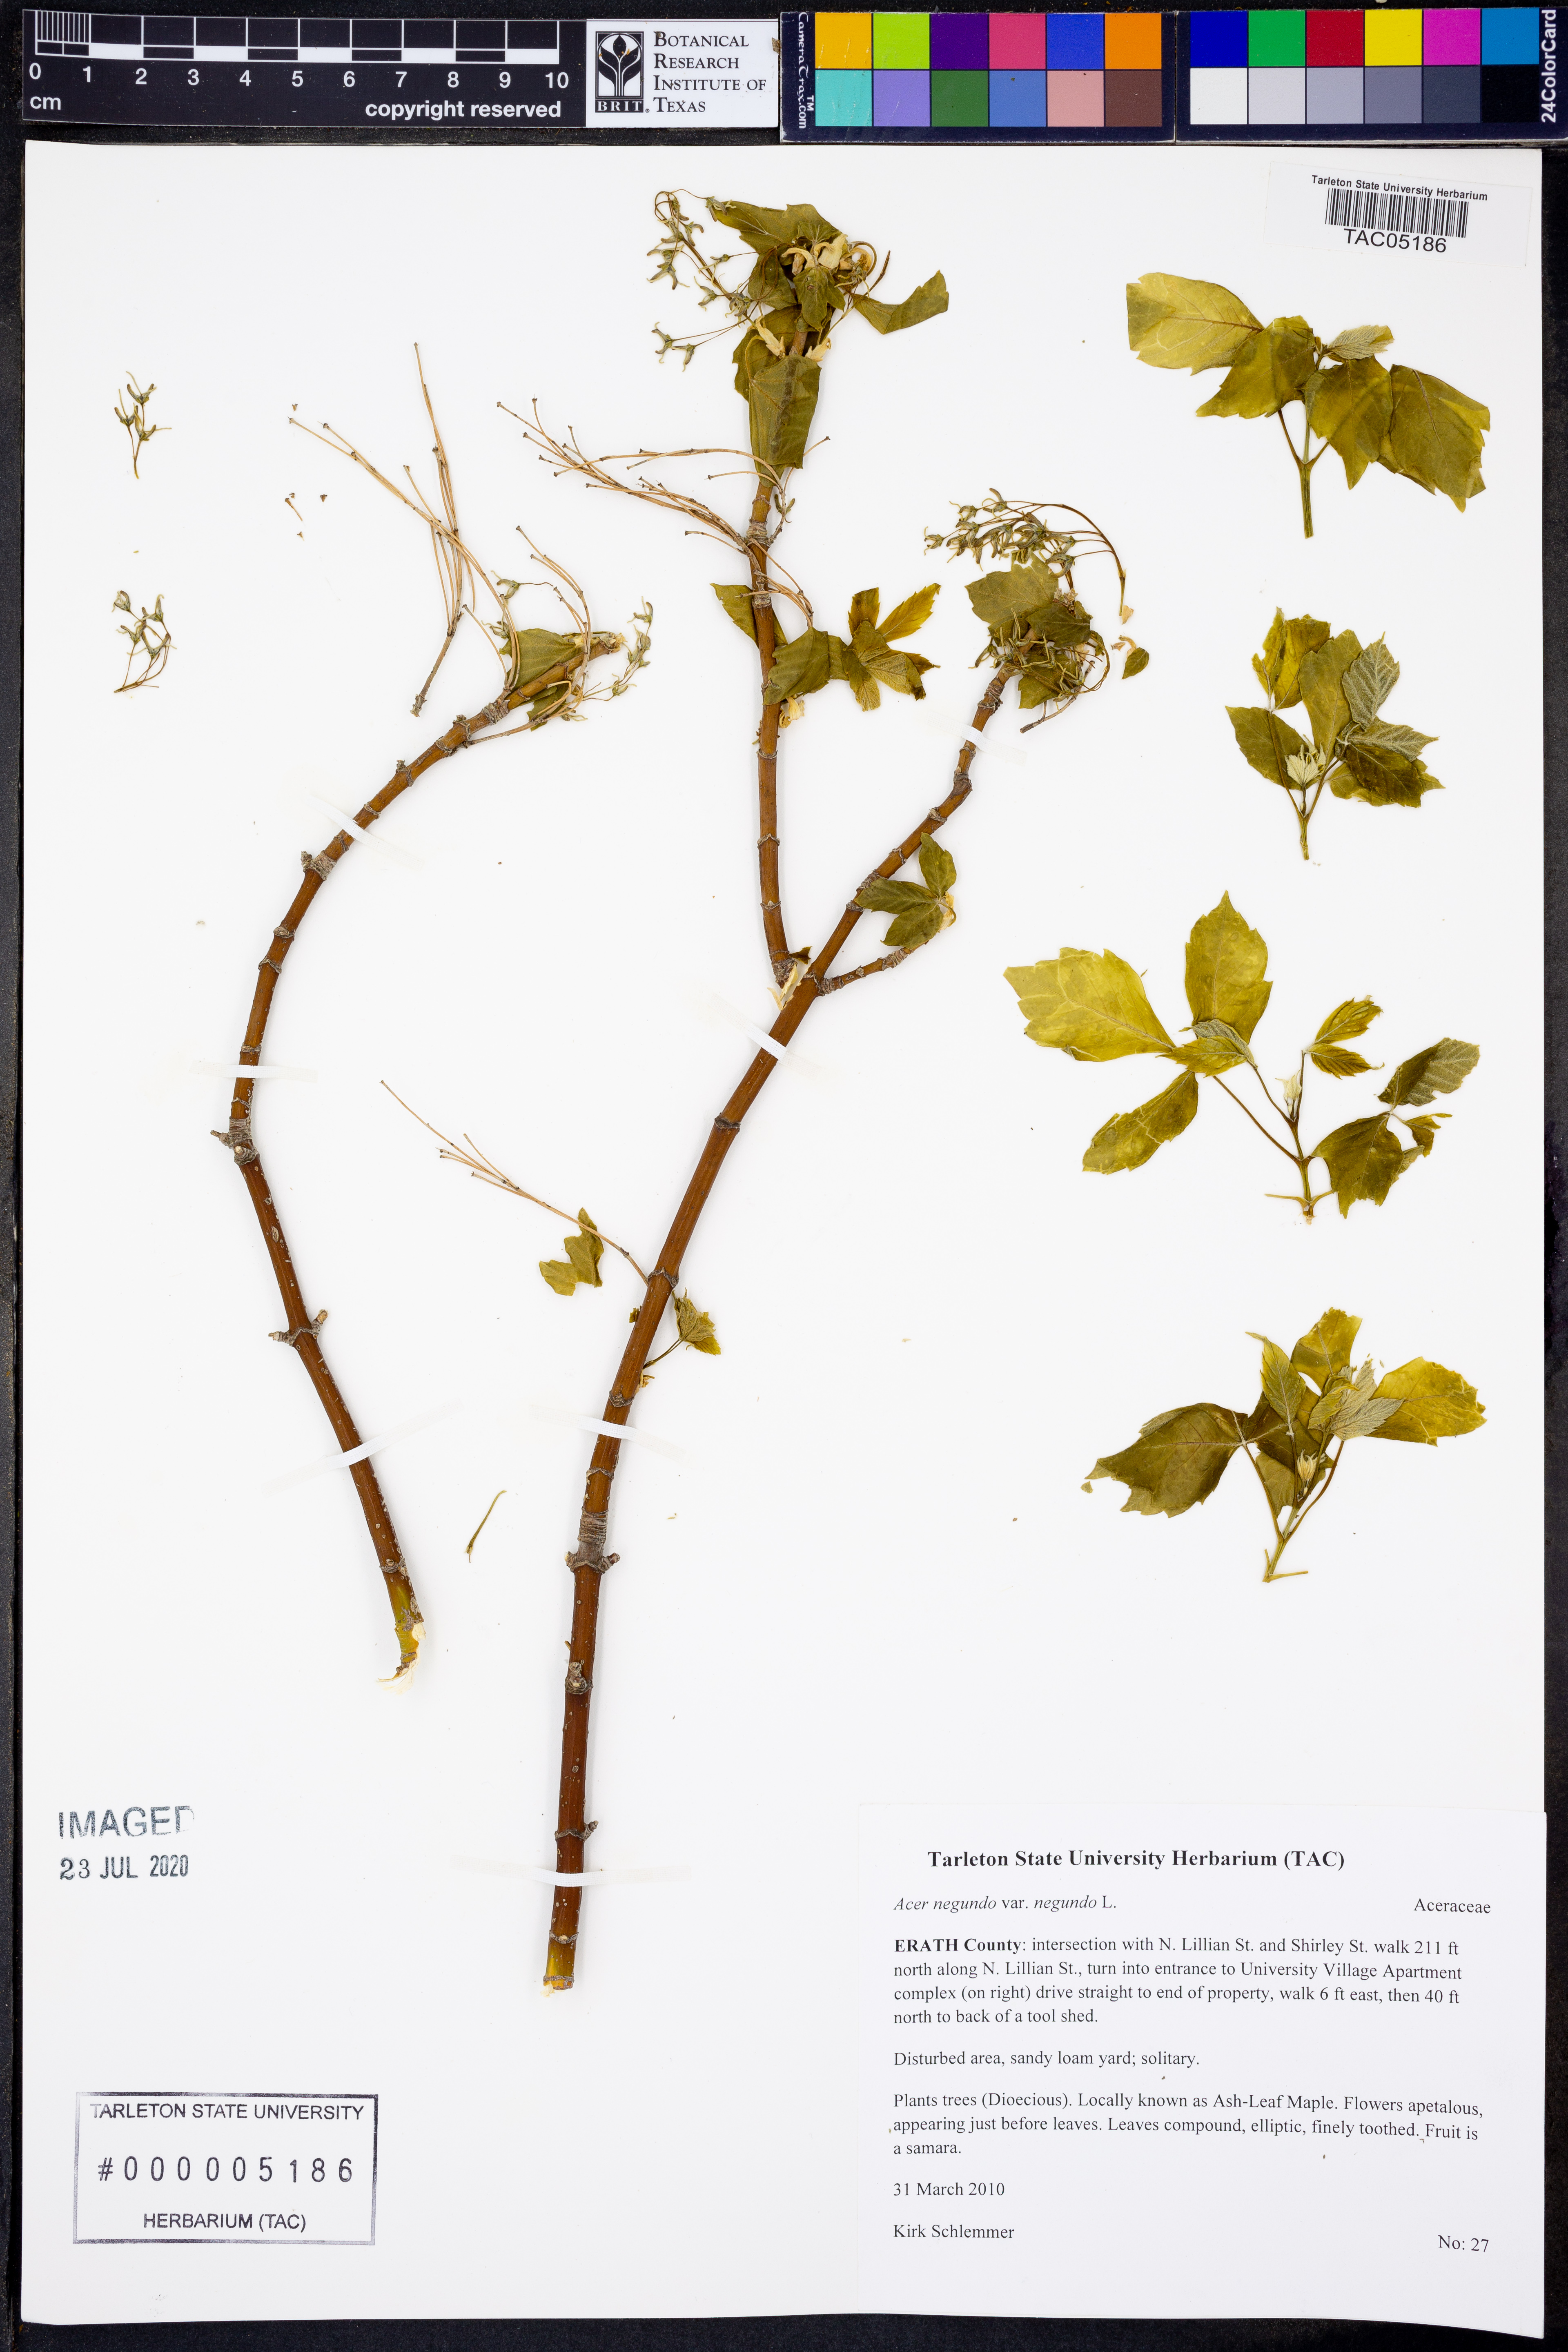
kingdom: Plantae
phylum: Tracheophyta
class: Magnoliopsida
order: Sapindales
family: Sapindaceae
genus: Acer
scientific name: Acer negundo
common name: Ashleaf maple
